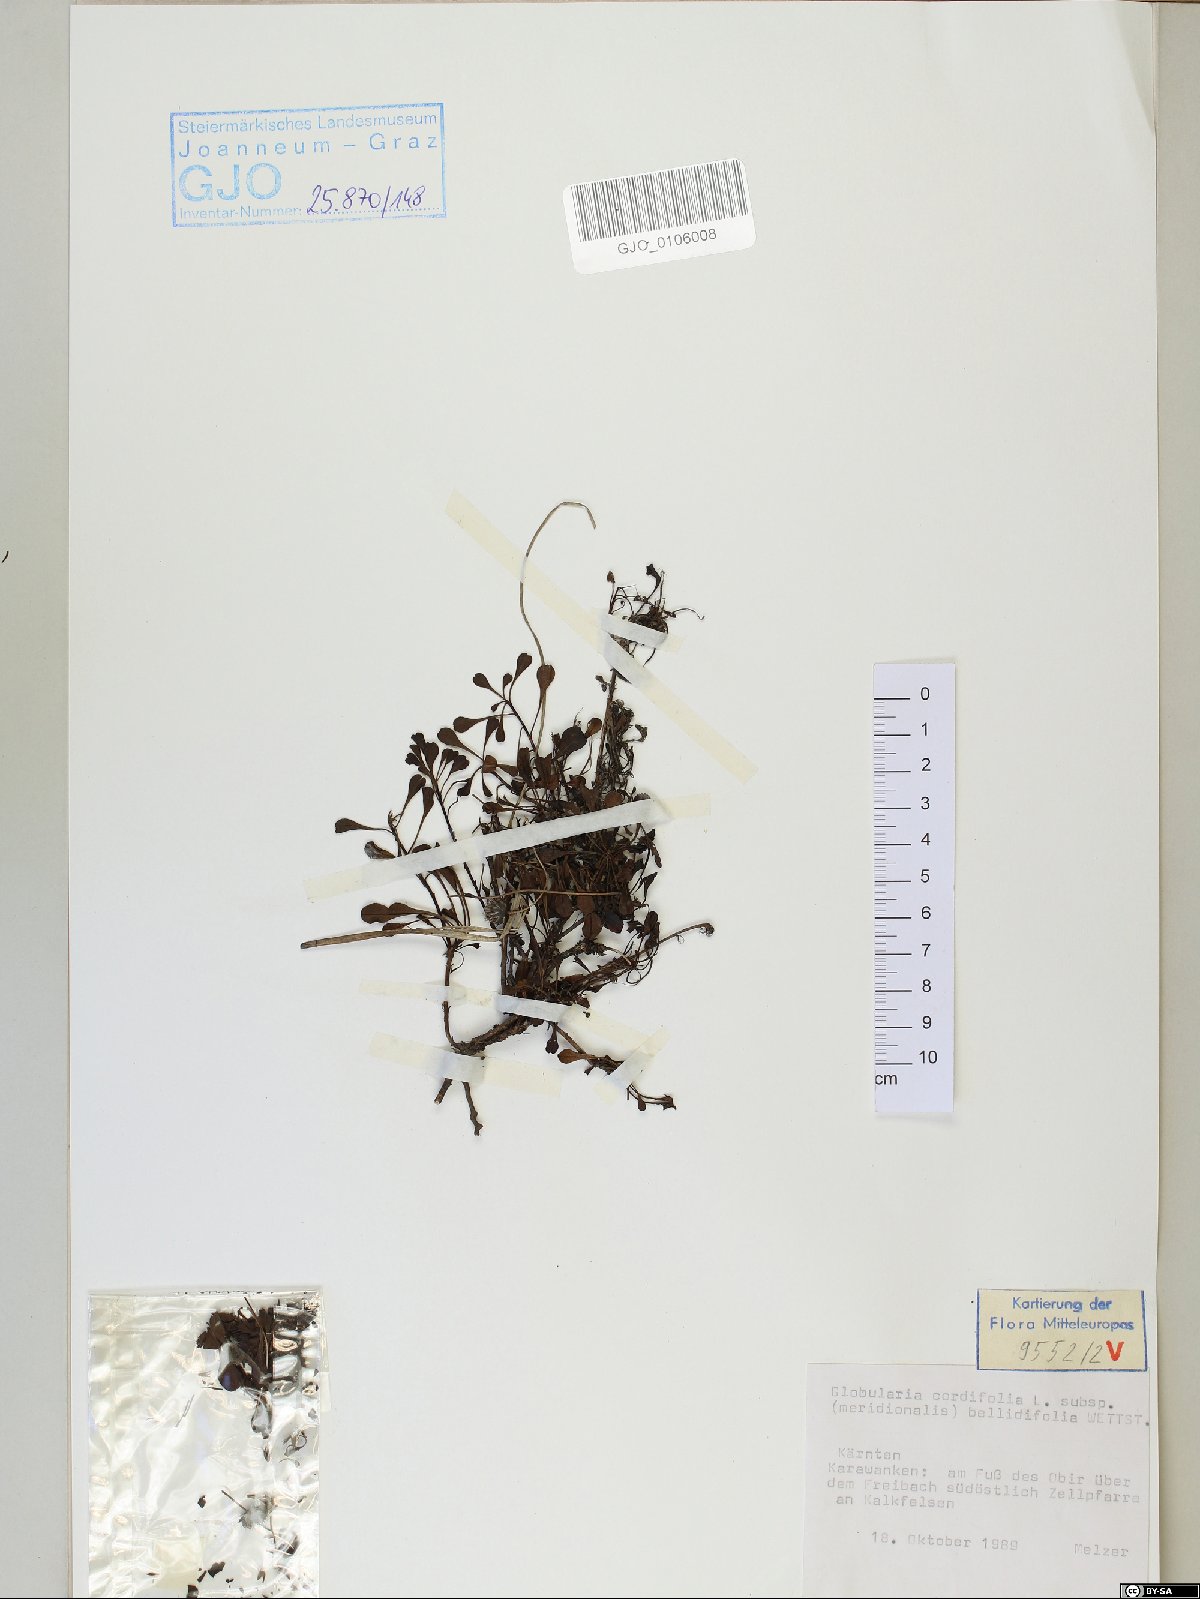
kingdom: Plantae
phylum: Tracheophyta
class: Magnoliopsida
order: Lamiales
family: Plantaginaceae
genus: Globularia
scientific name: Globularia meridionalis
